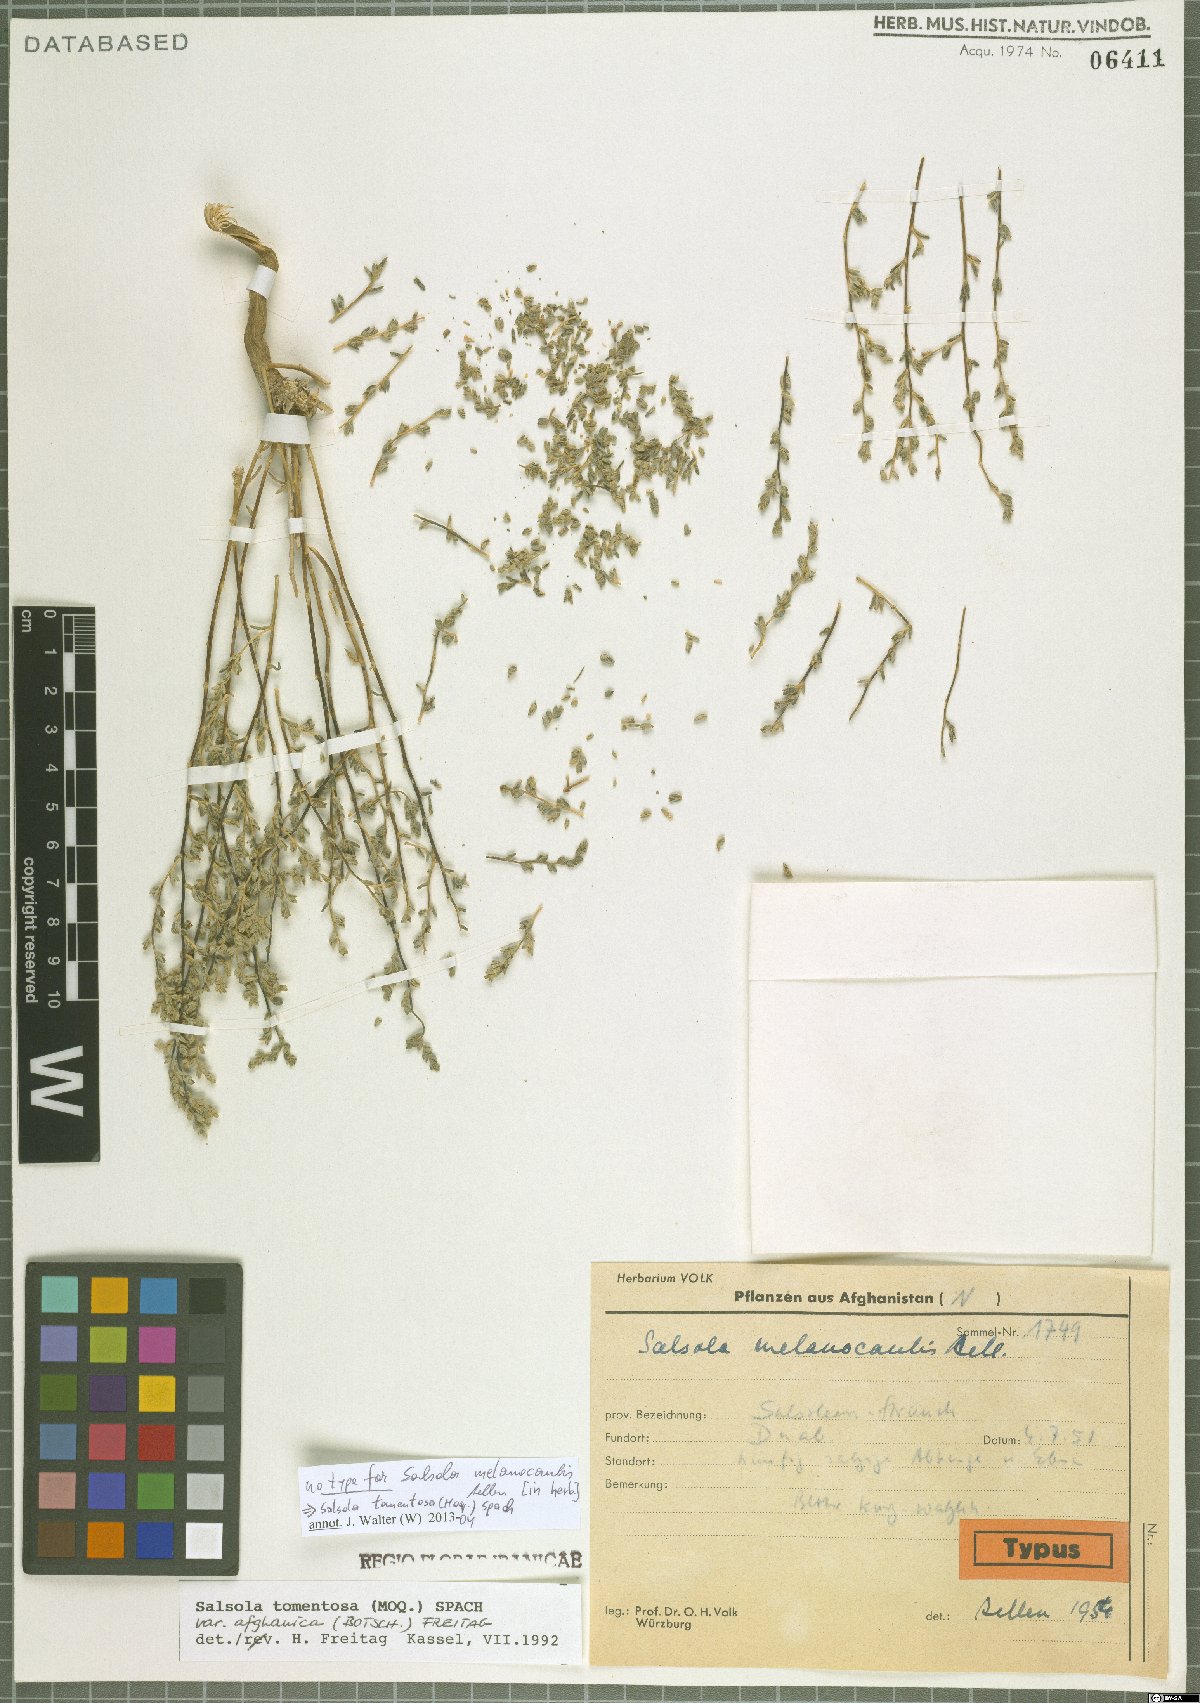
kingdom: Plantae
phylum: Tracheophyta
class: Magnoliopsida
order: Caryophyllales
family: Amaranthaceae
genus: Kaviria
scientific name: Kaviria tomentosa
